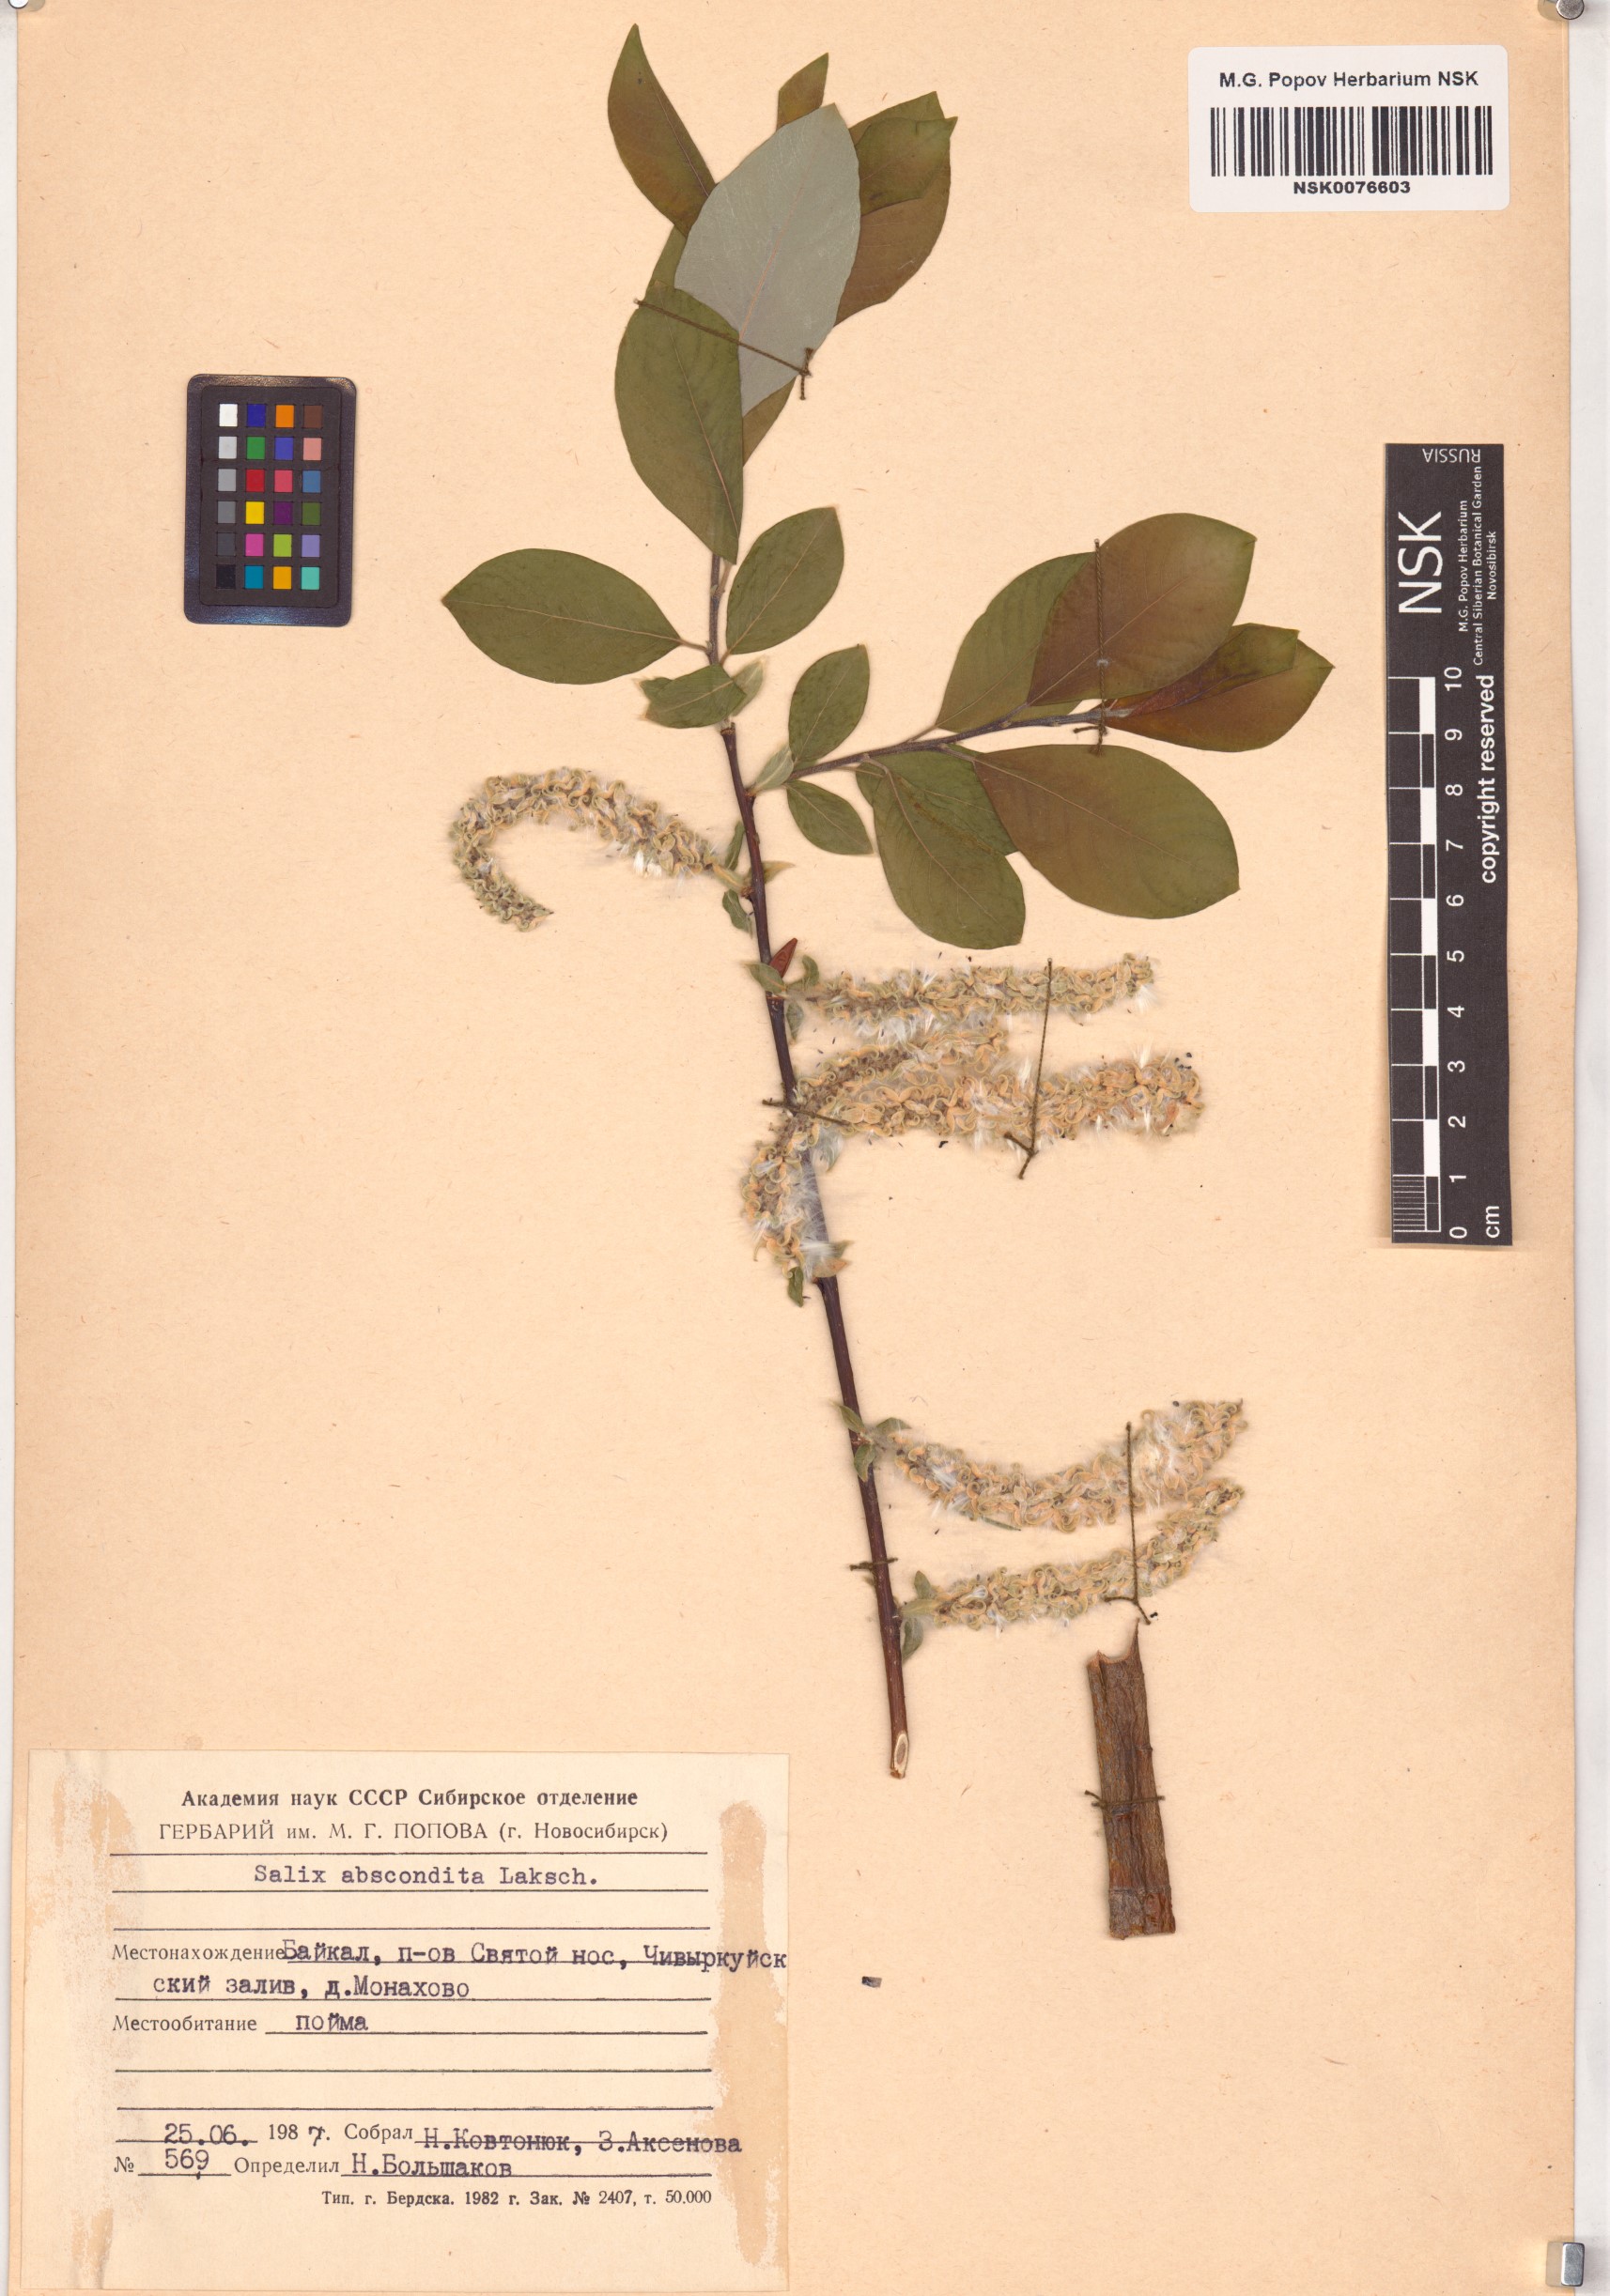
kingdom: Plantae
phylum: Tracheophyta
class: Magnoliopsida
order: Malpighiales
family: Salicaceae
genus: Salix
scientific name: Salix abscondita
